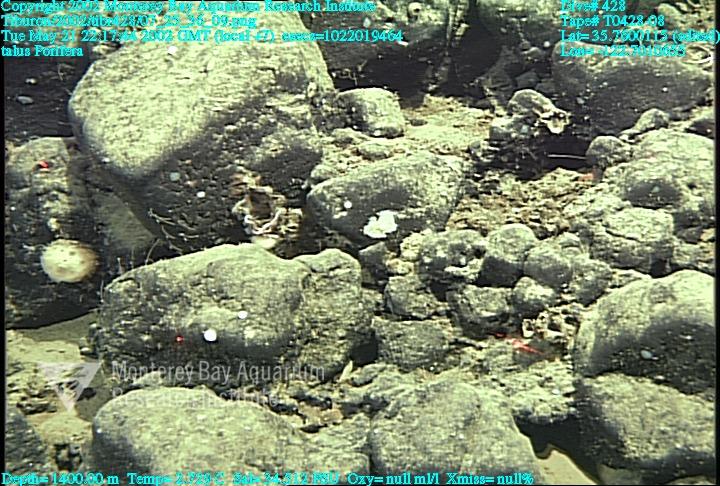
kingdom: Animalia
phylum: Porifera
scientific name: Porifera
